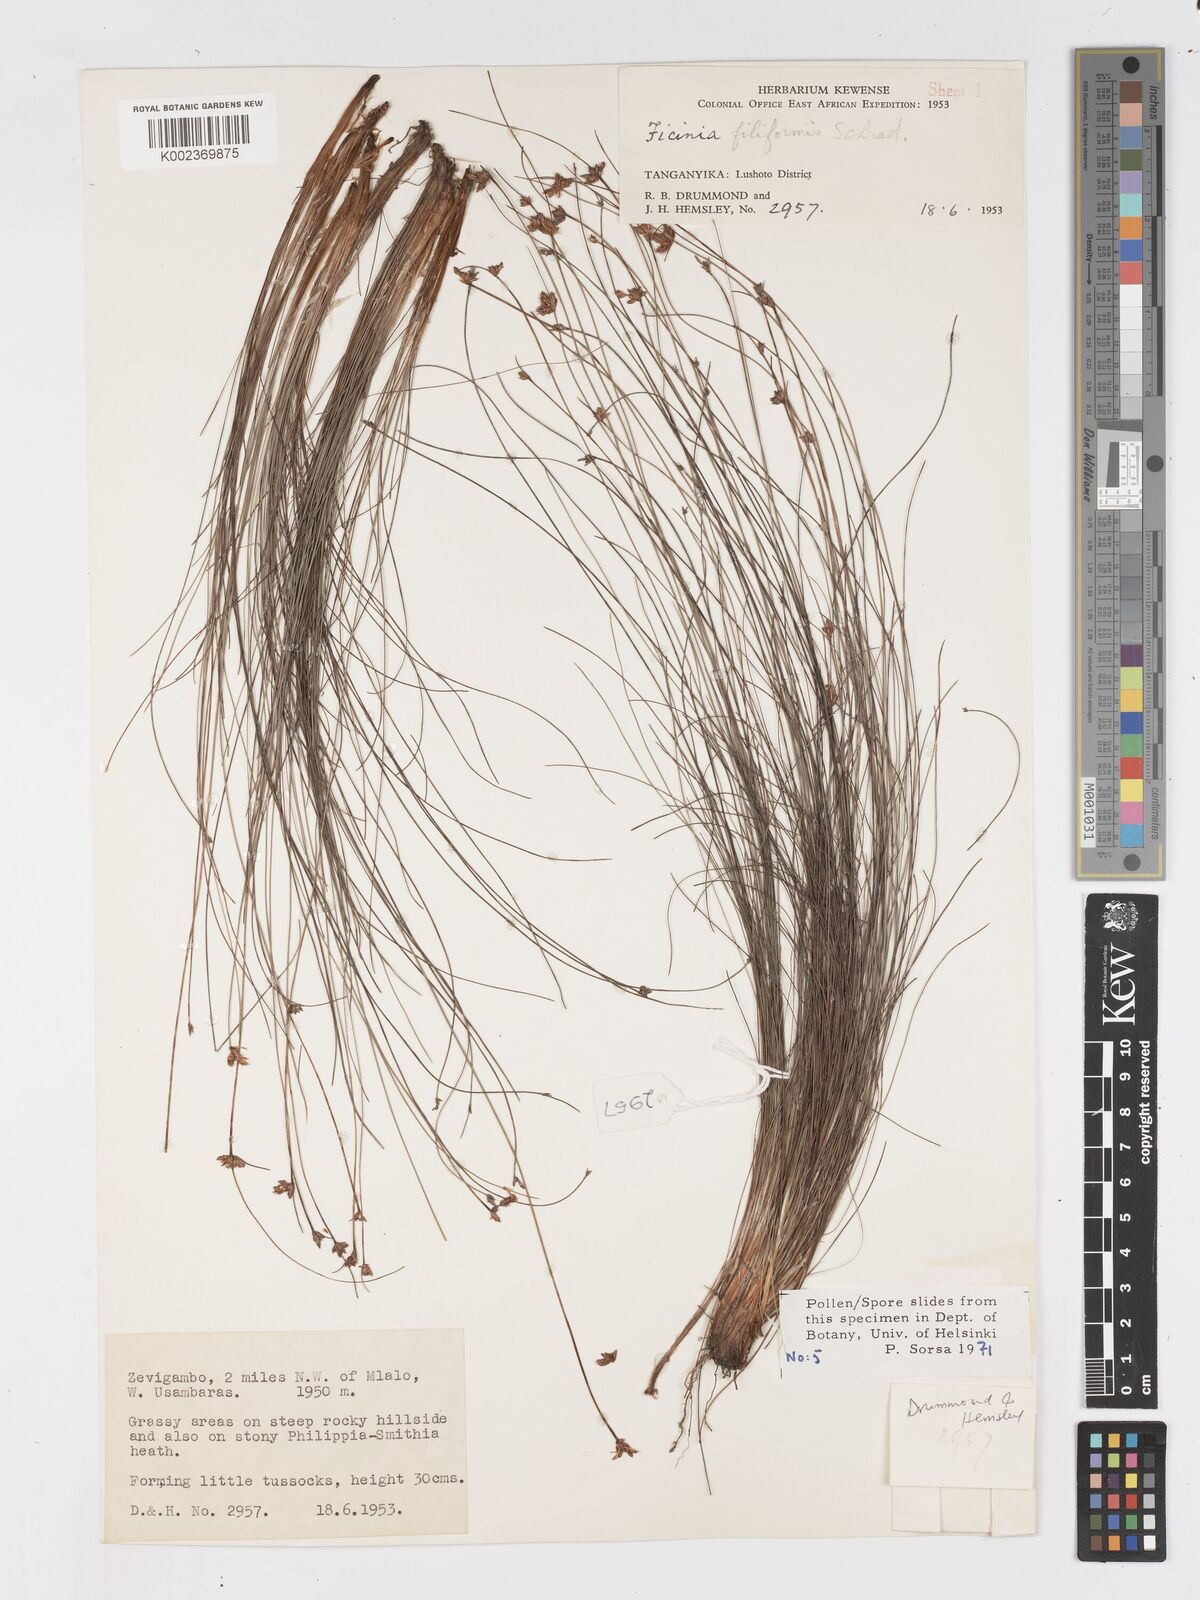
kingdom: Plantae
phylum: Tracheophyta
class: Liliopsida
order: Poales
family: Cyperaceae
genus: Ficinia
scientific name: Ficinia filiformis
